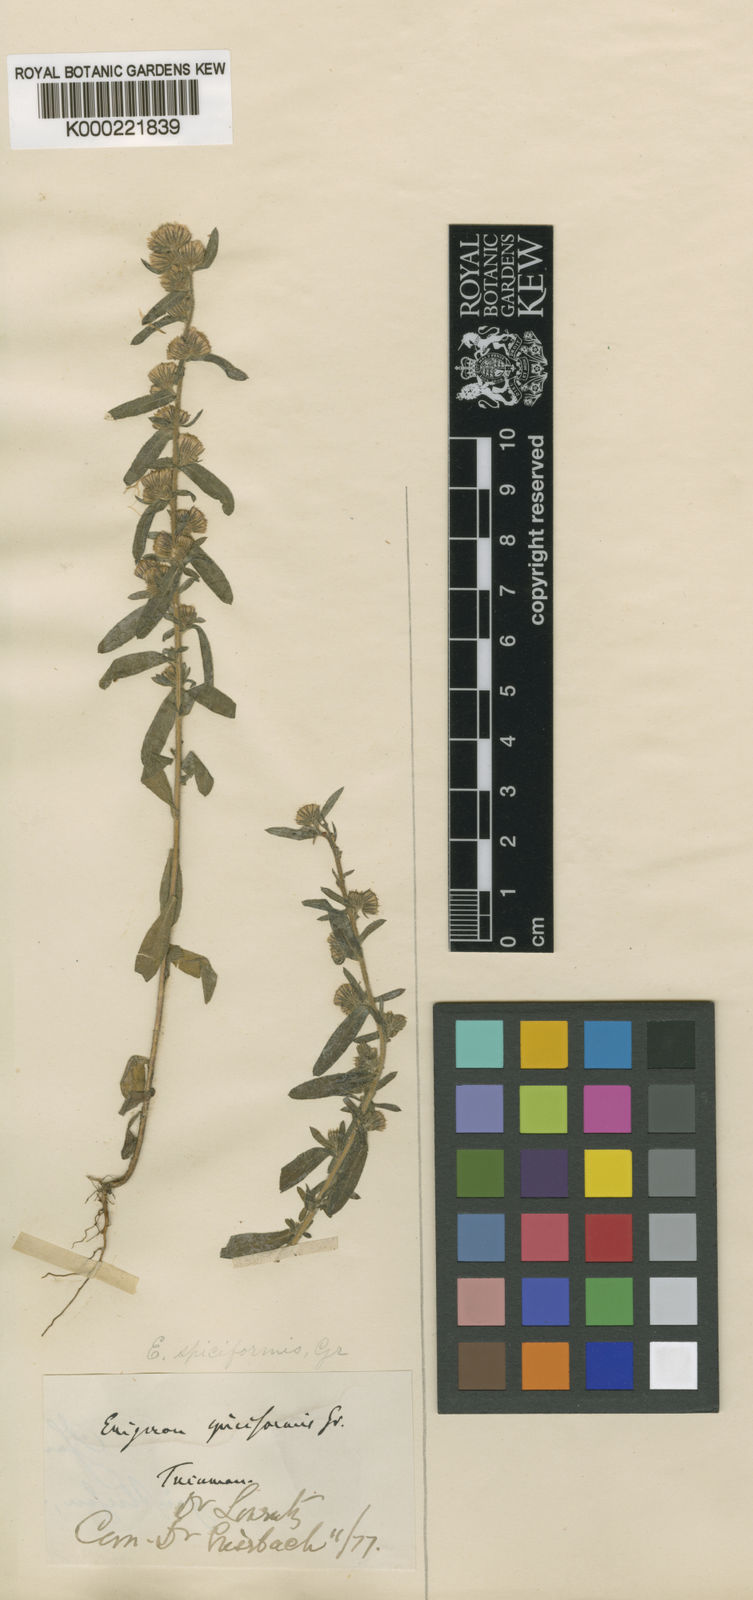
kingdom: Plantae
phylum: Tracheophyta
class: Magnoliopsida
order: Asterales
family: Asteraceae
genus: Erigeron
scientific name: Erigeron spiciformis
